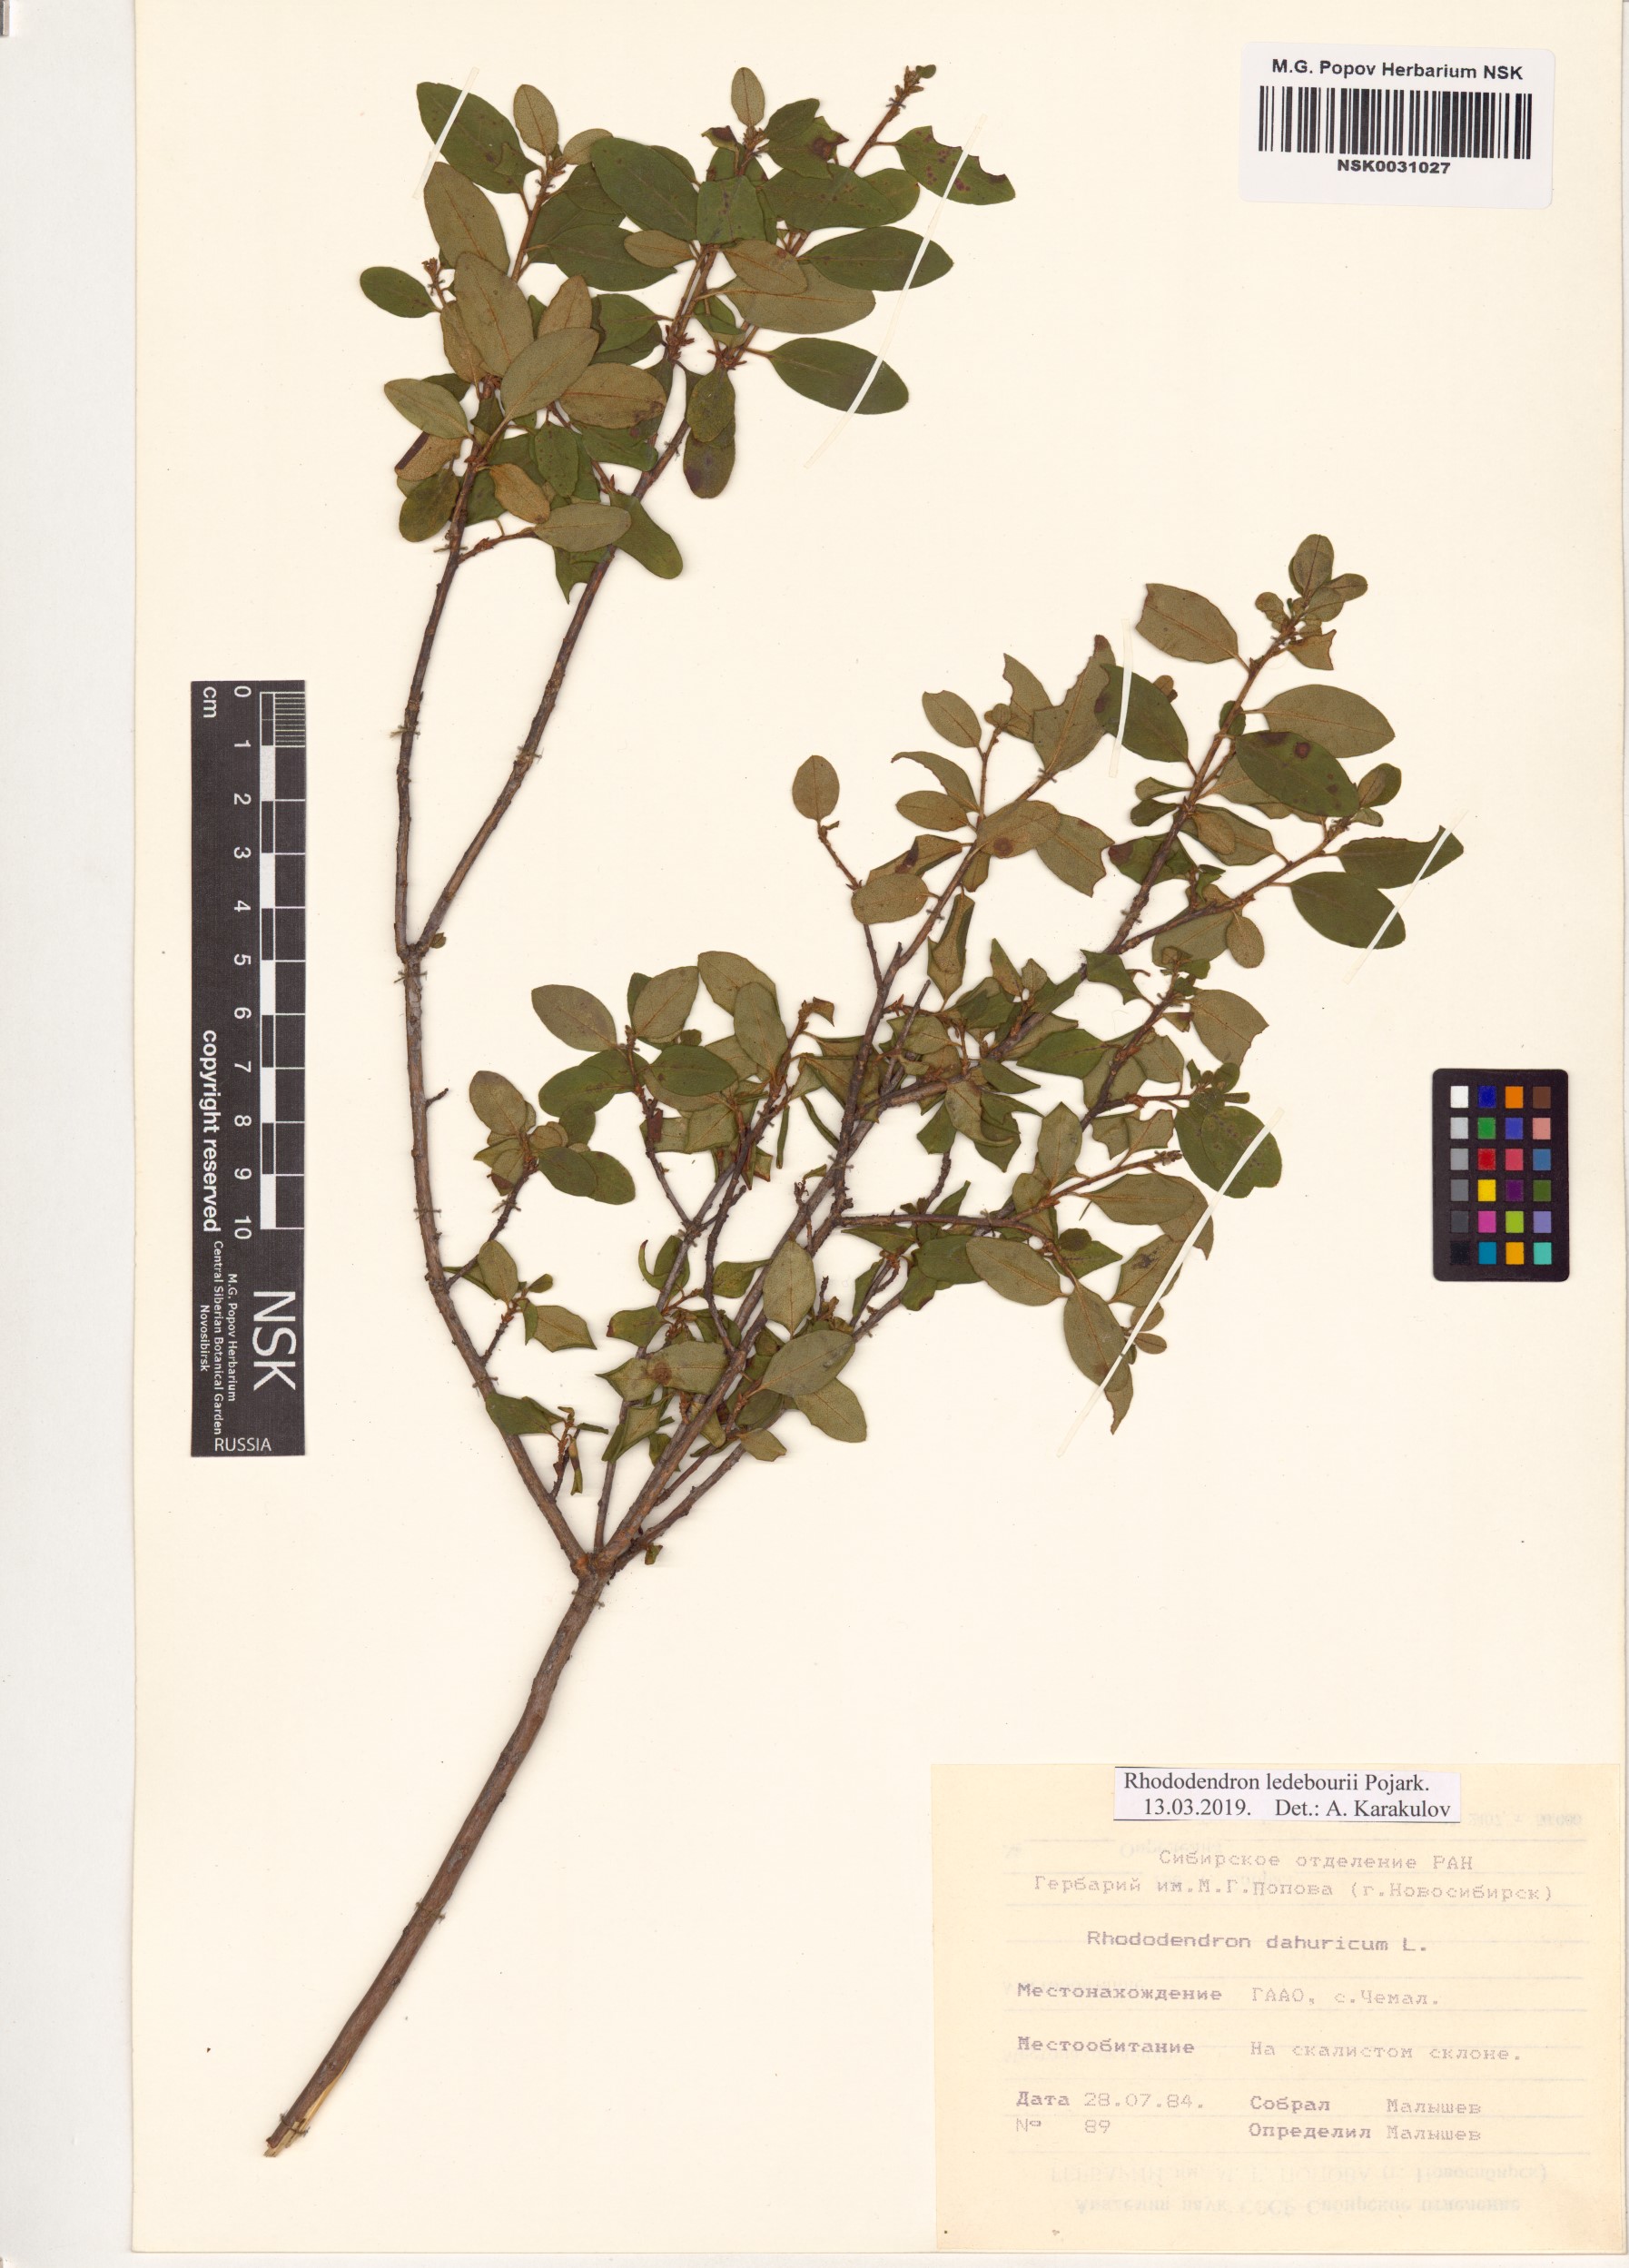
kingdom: Plantae
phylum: Tracheophyta
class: Magnoliopsida
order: Ericales
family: Ericaceae
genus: Rhododendron
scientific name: Rhododendron dauricum
